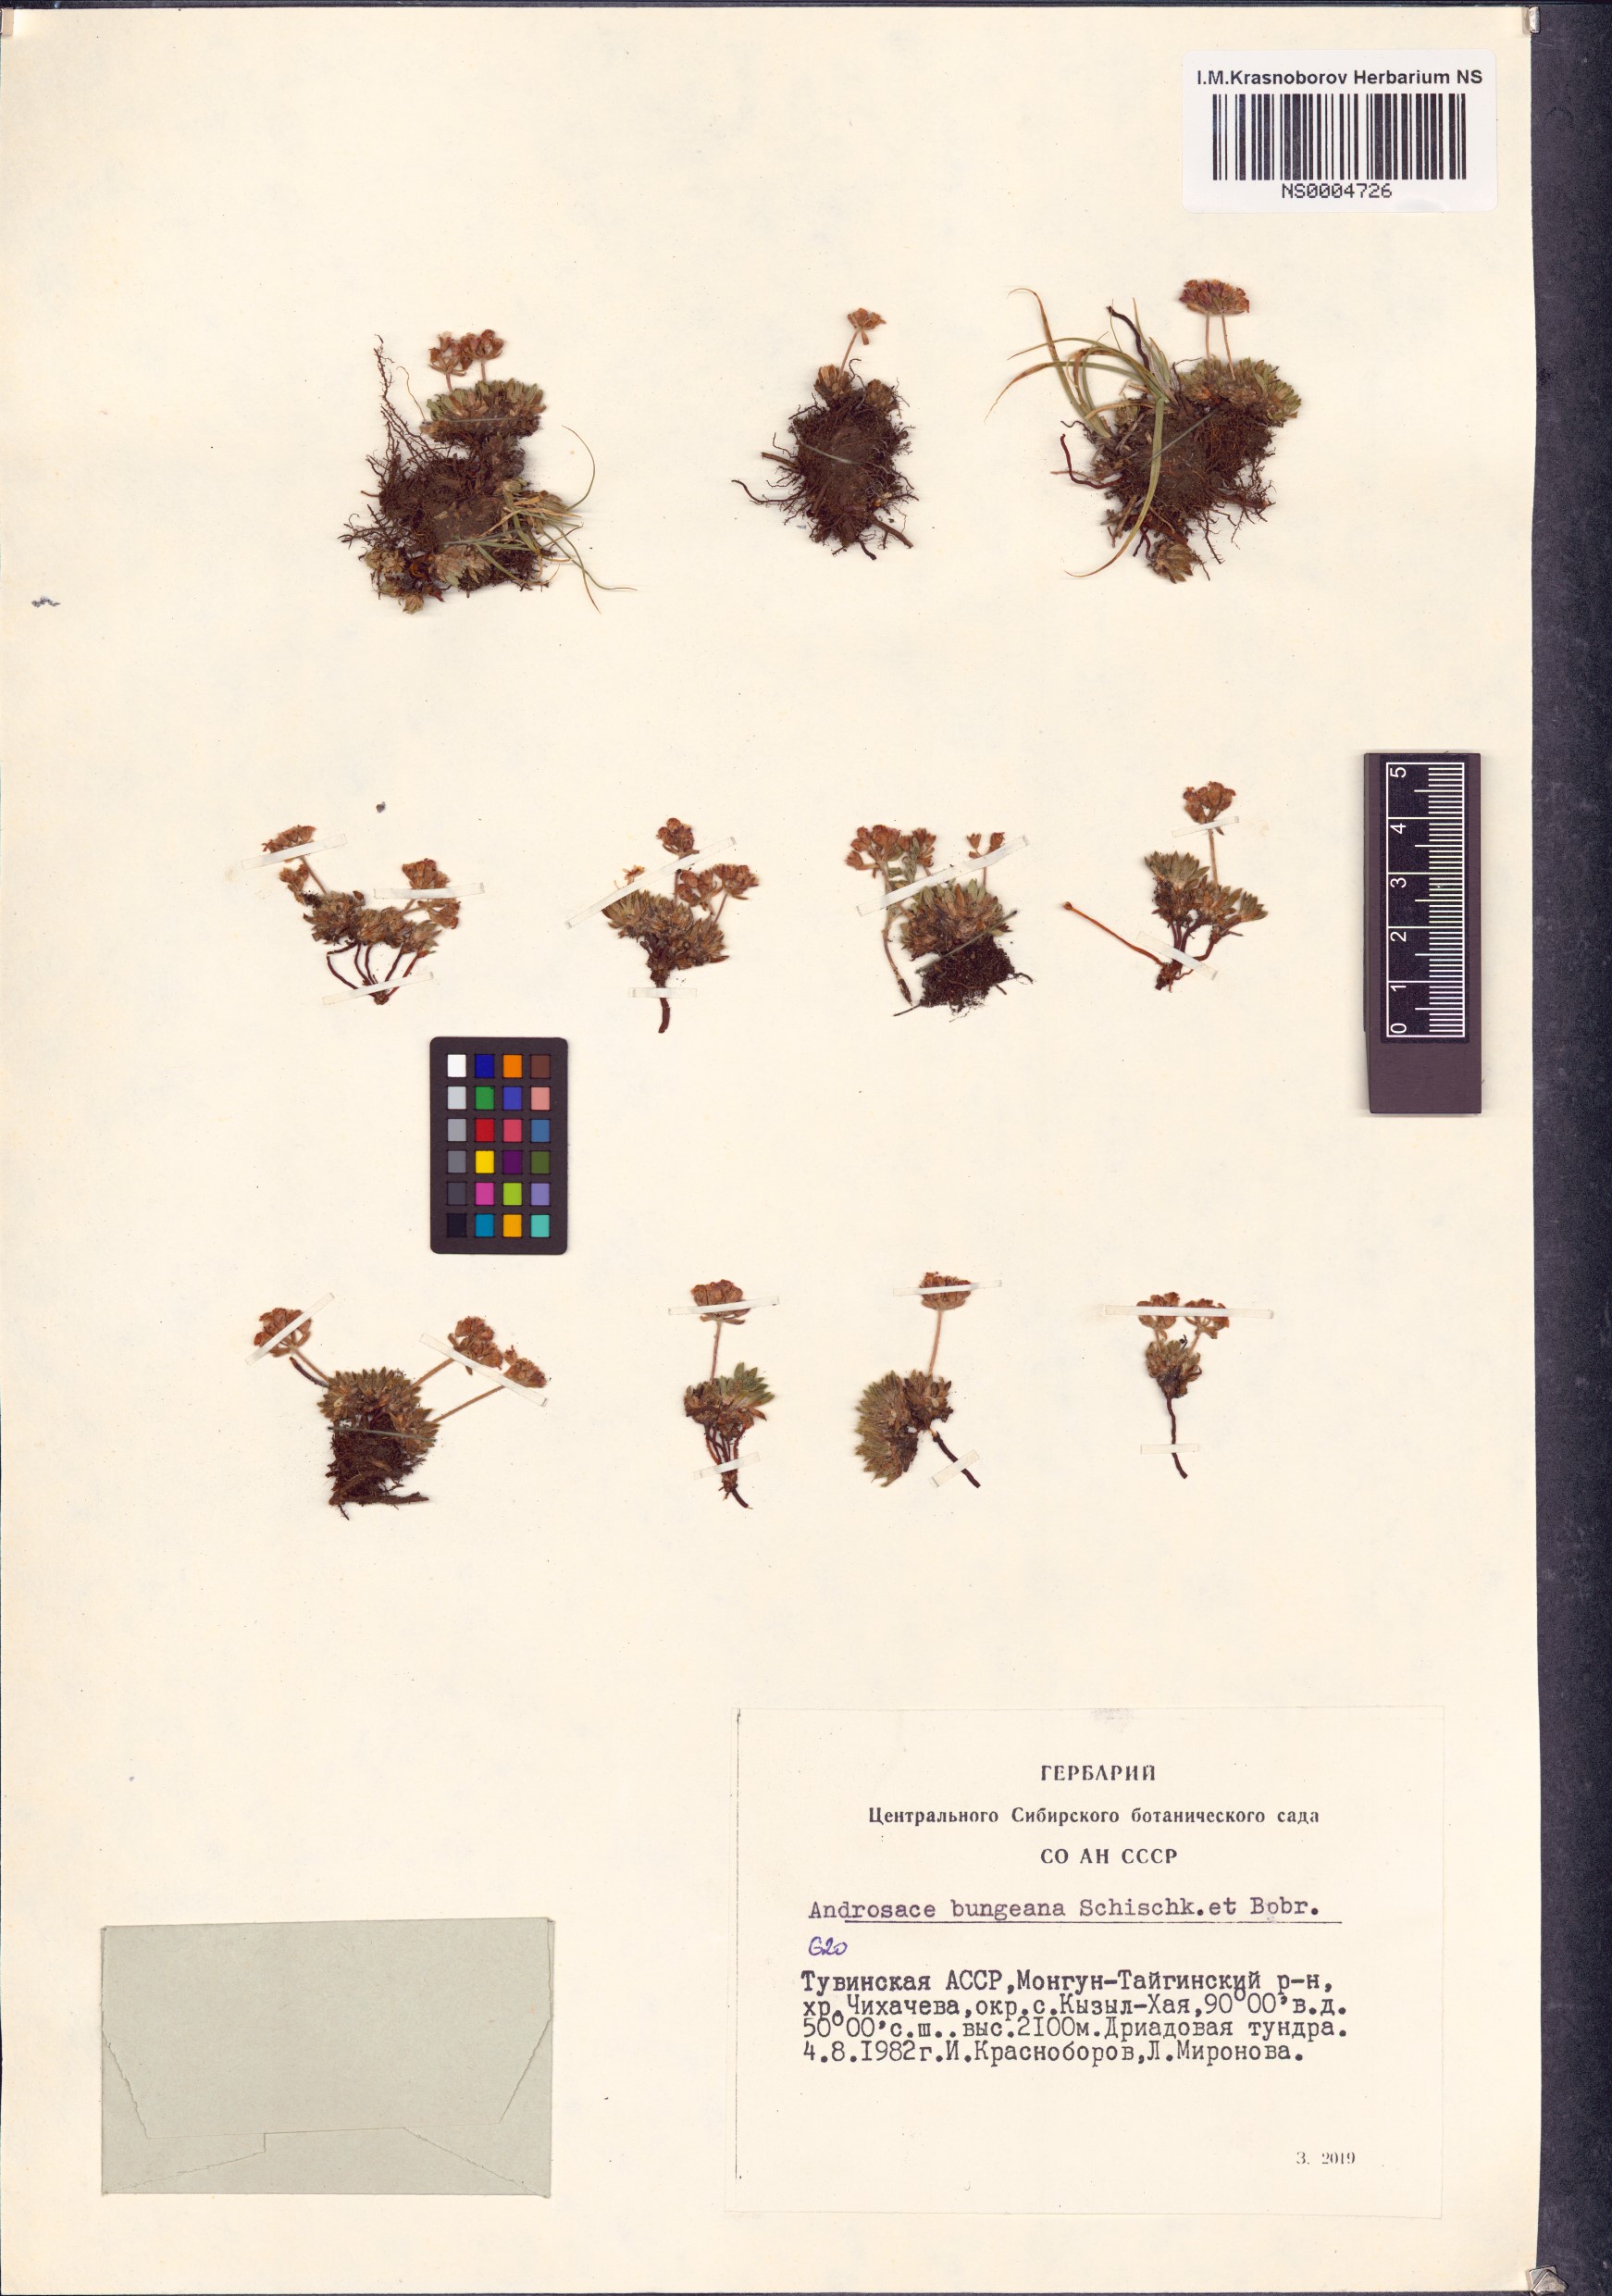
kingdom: Plantae
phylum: Tracheophyta
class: Magnoliopsida
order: Ericales
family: Primulaceae
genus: Androsace
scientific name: Androsace bungeana
